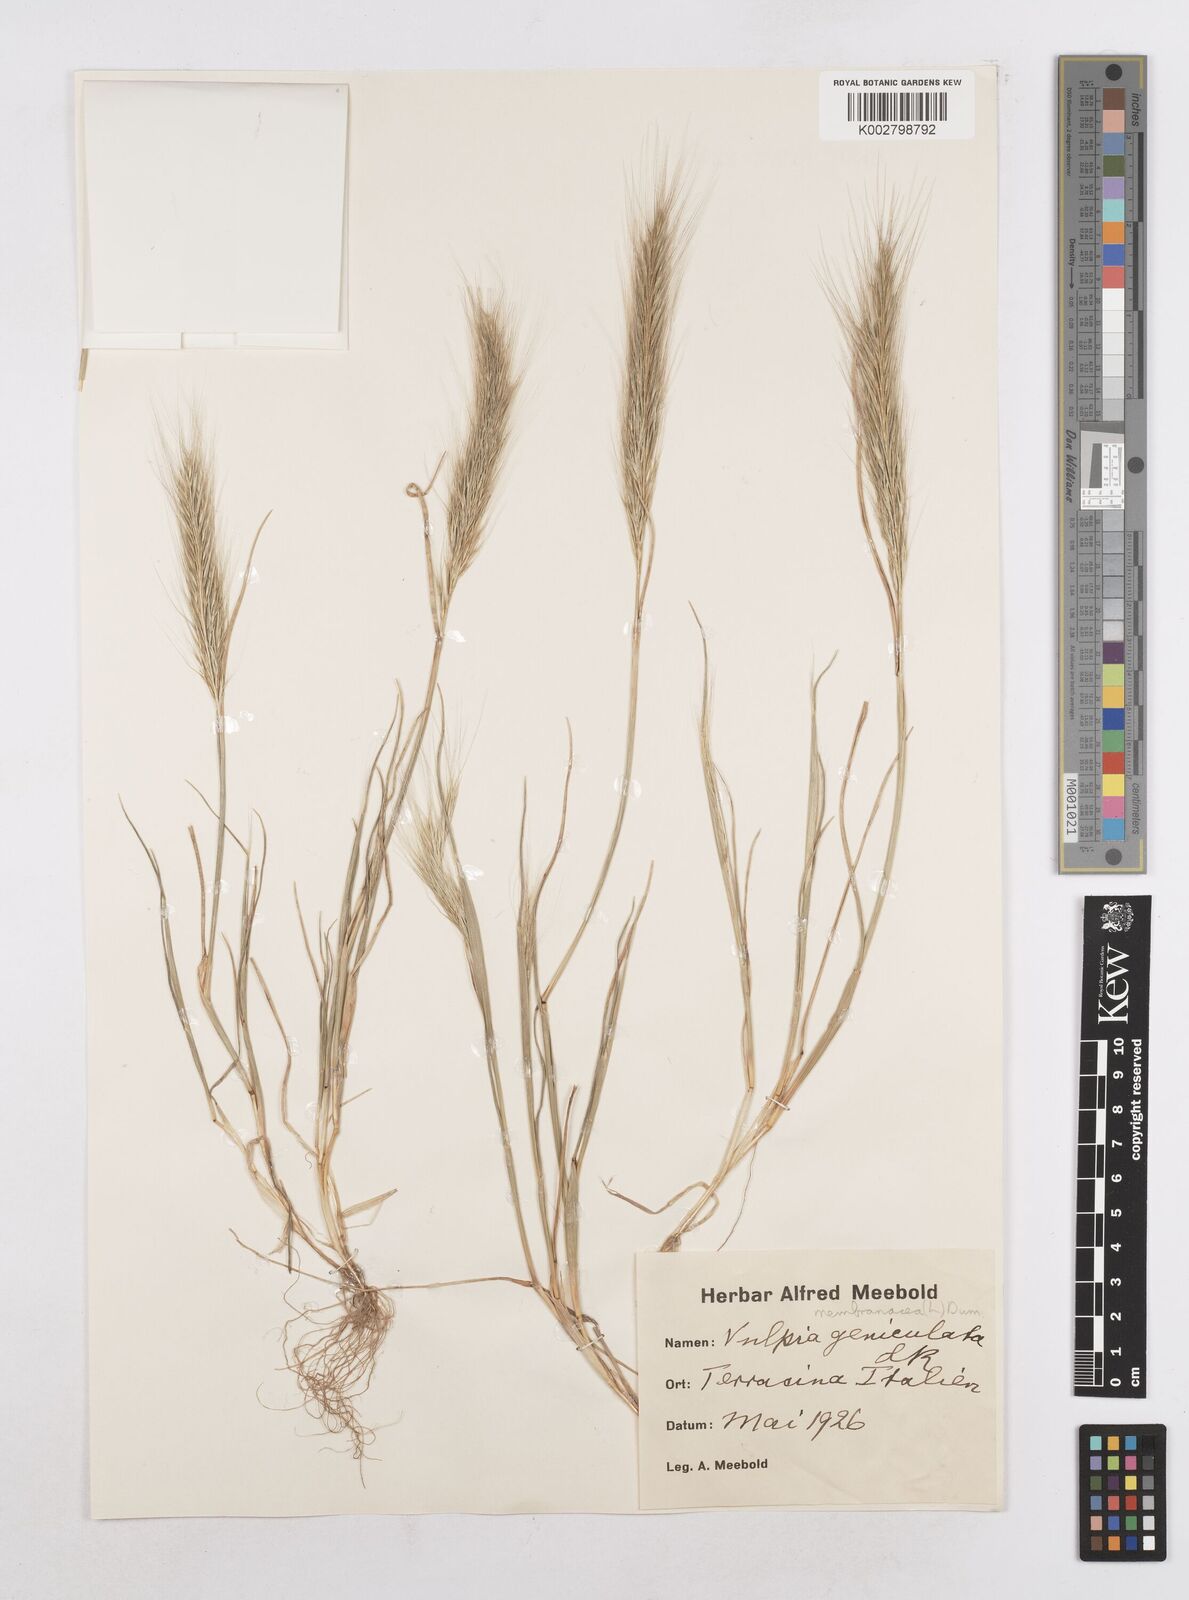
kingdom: Plantae
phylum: Tracheophyta
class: Liliopsida
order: Poales
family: Poaceae
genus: Festuca
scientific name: Festuca fasciculata
